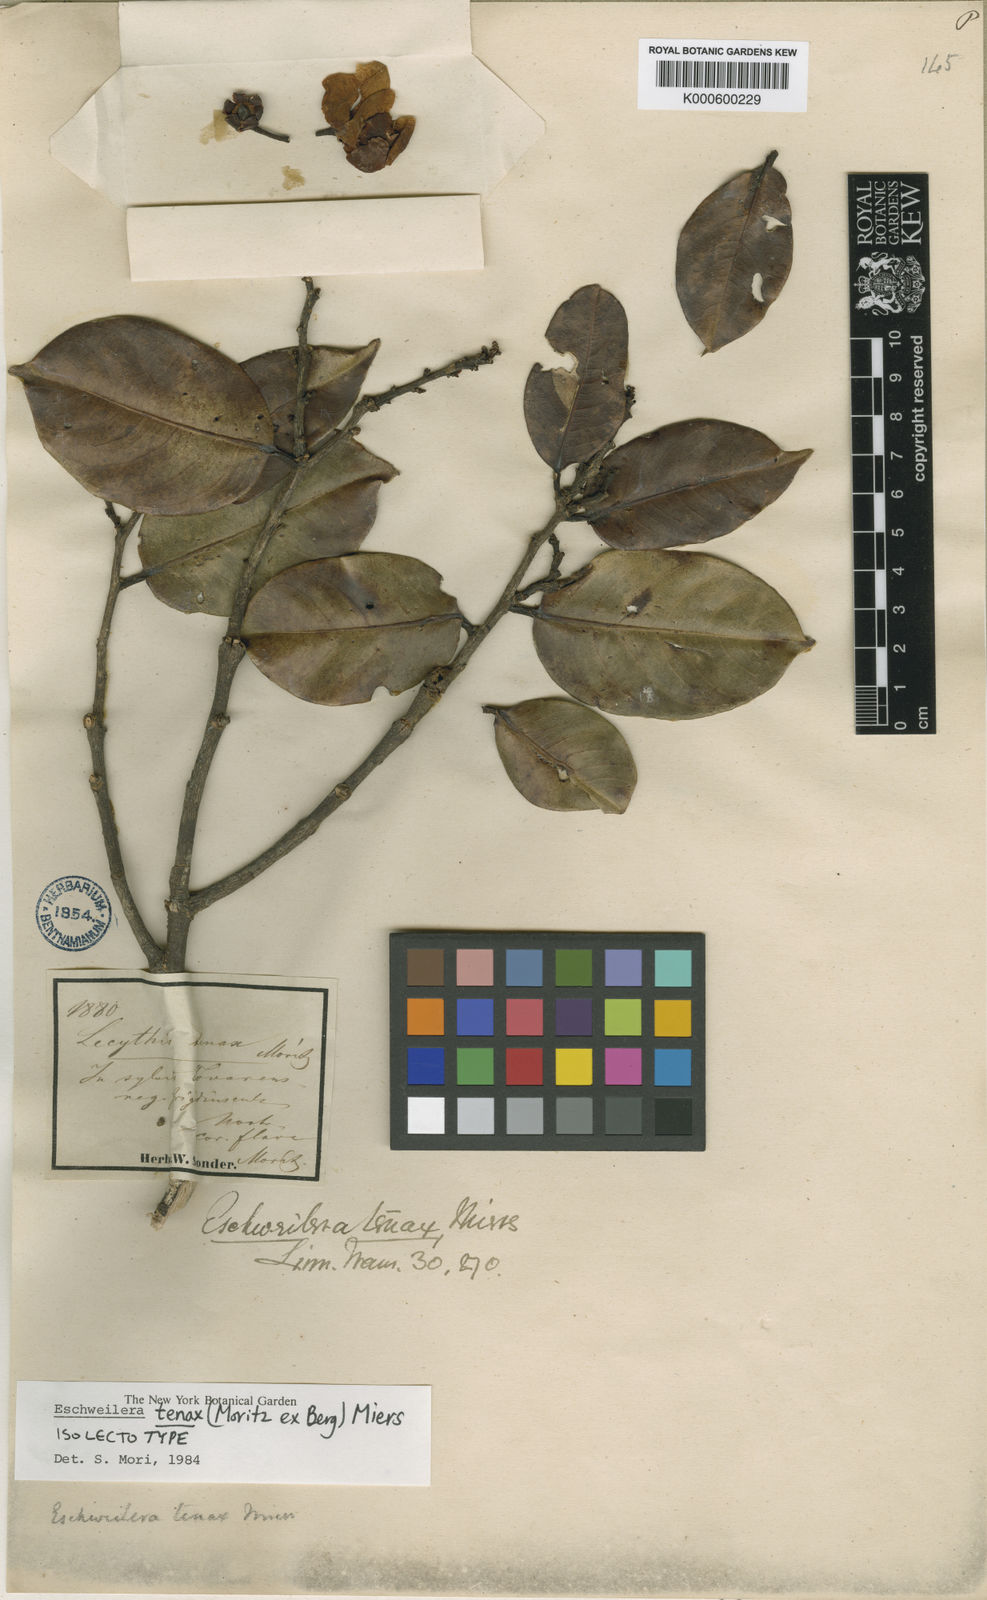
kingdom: Plantae
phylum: Tracheophyta
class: Magnoliopsida
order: Ericales
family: Lecythidaceae
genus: Eschweilera
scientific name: Eschweilera tenax
